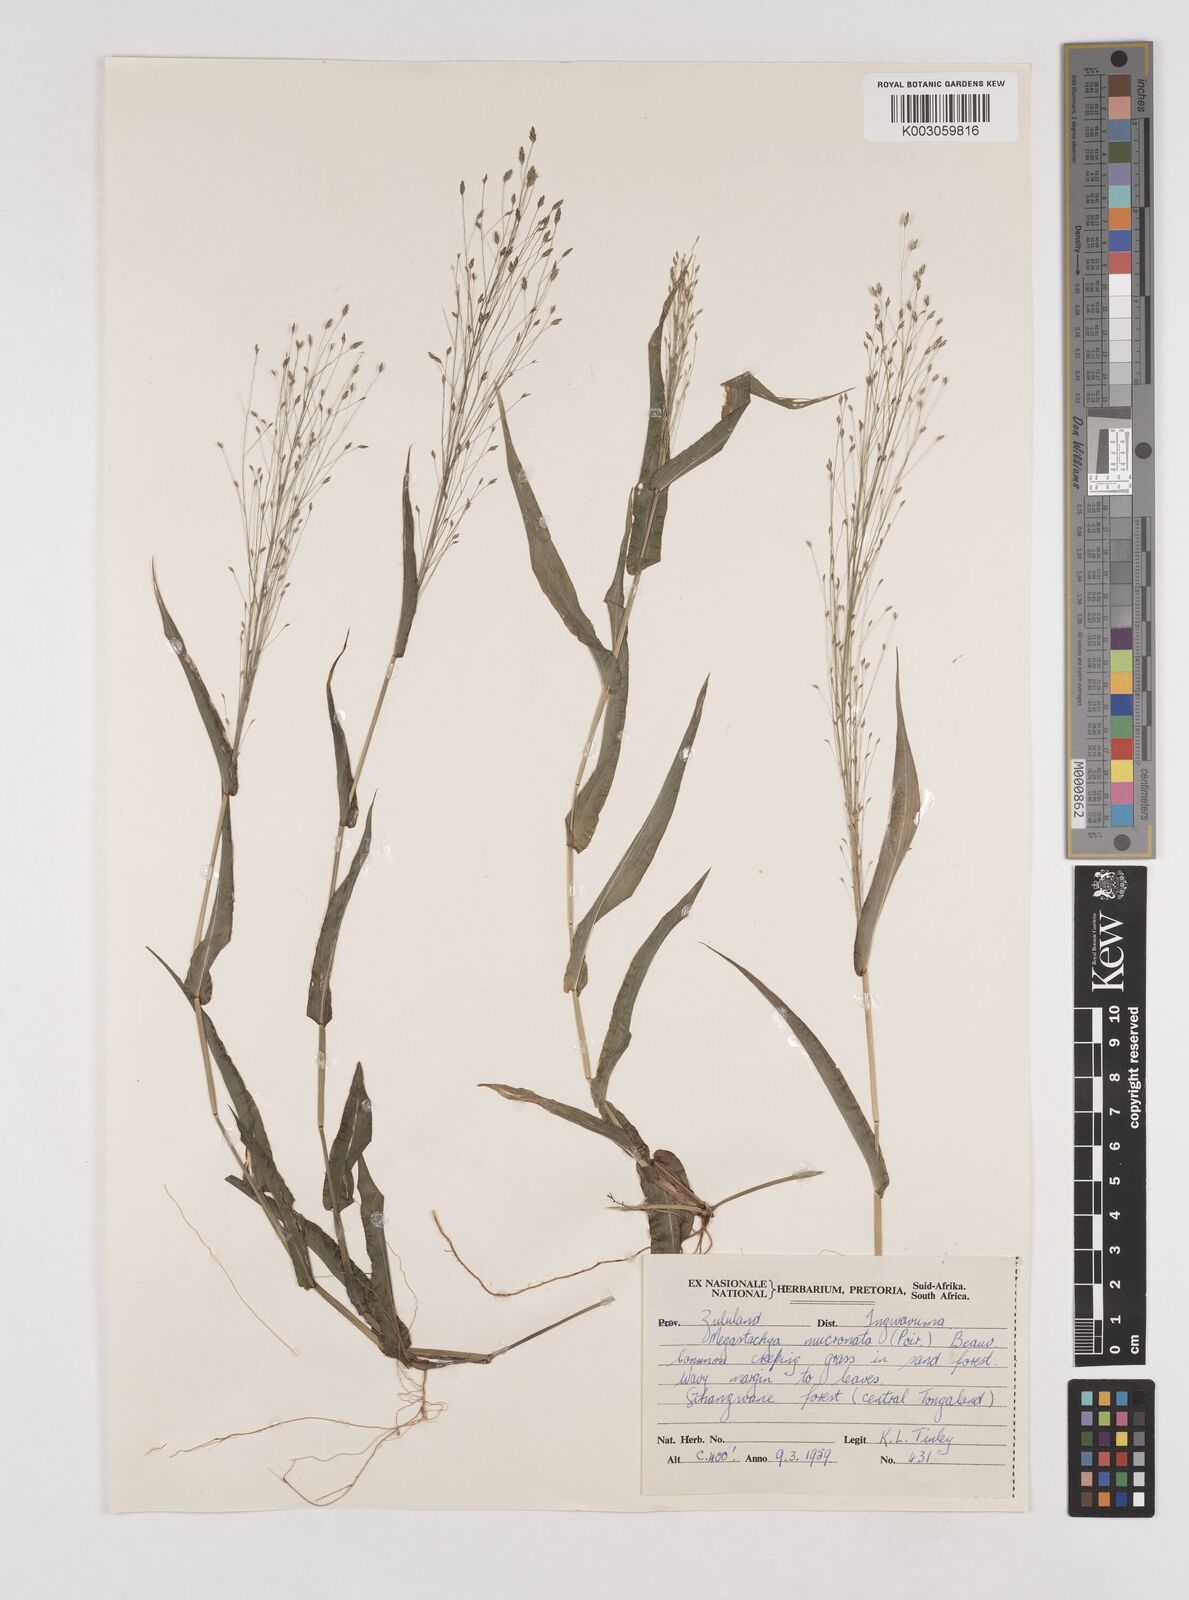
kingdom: Plantae
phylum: Tracheophyta
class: Liliopsida
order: Poales
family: Poaceae
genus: Megastachya
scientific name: Megastachya mucronata
